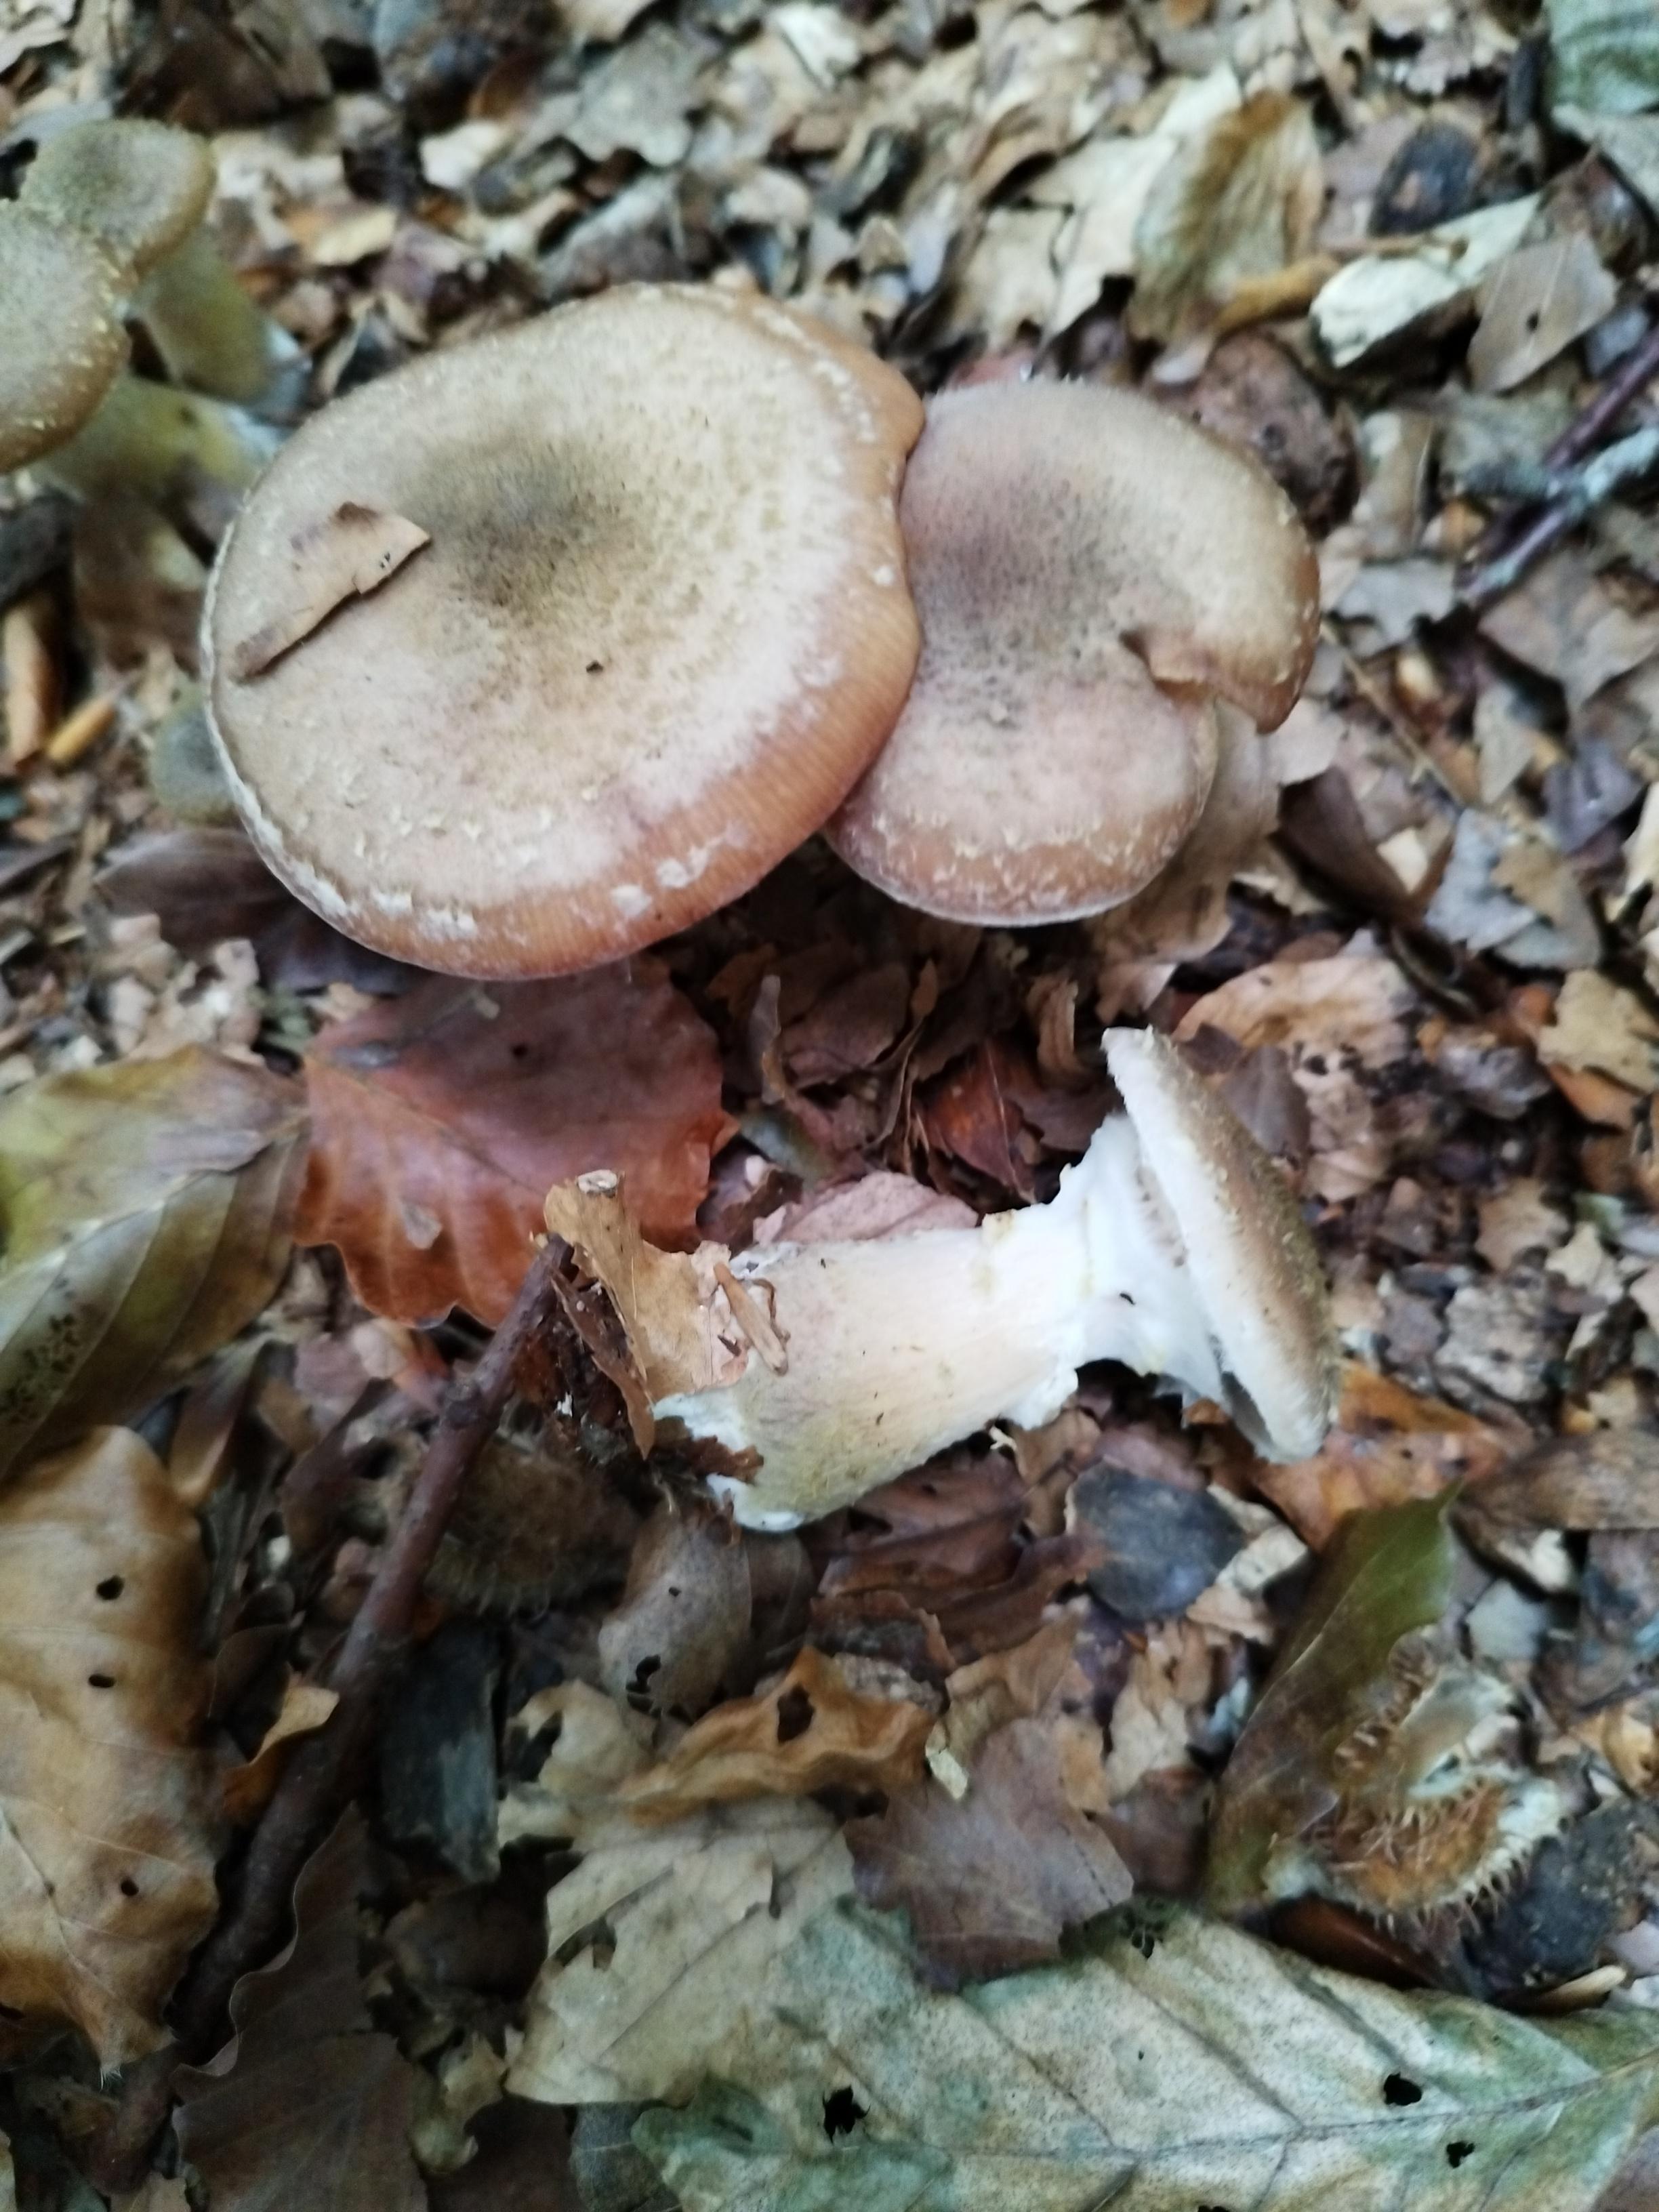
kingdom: Fungi
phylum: Basidiomycota
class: Agaricomycetes
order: Agaricales
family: Physalacriaceae
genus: Armillaria
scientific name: Armillaria lutea
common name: køllestokket honningsvamp
